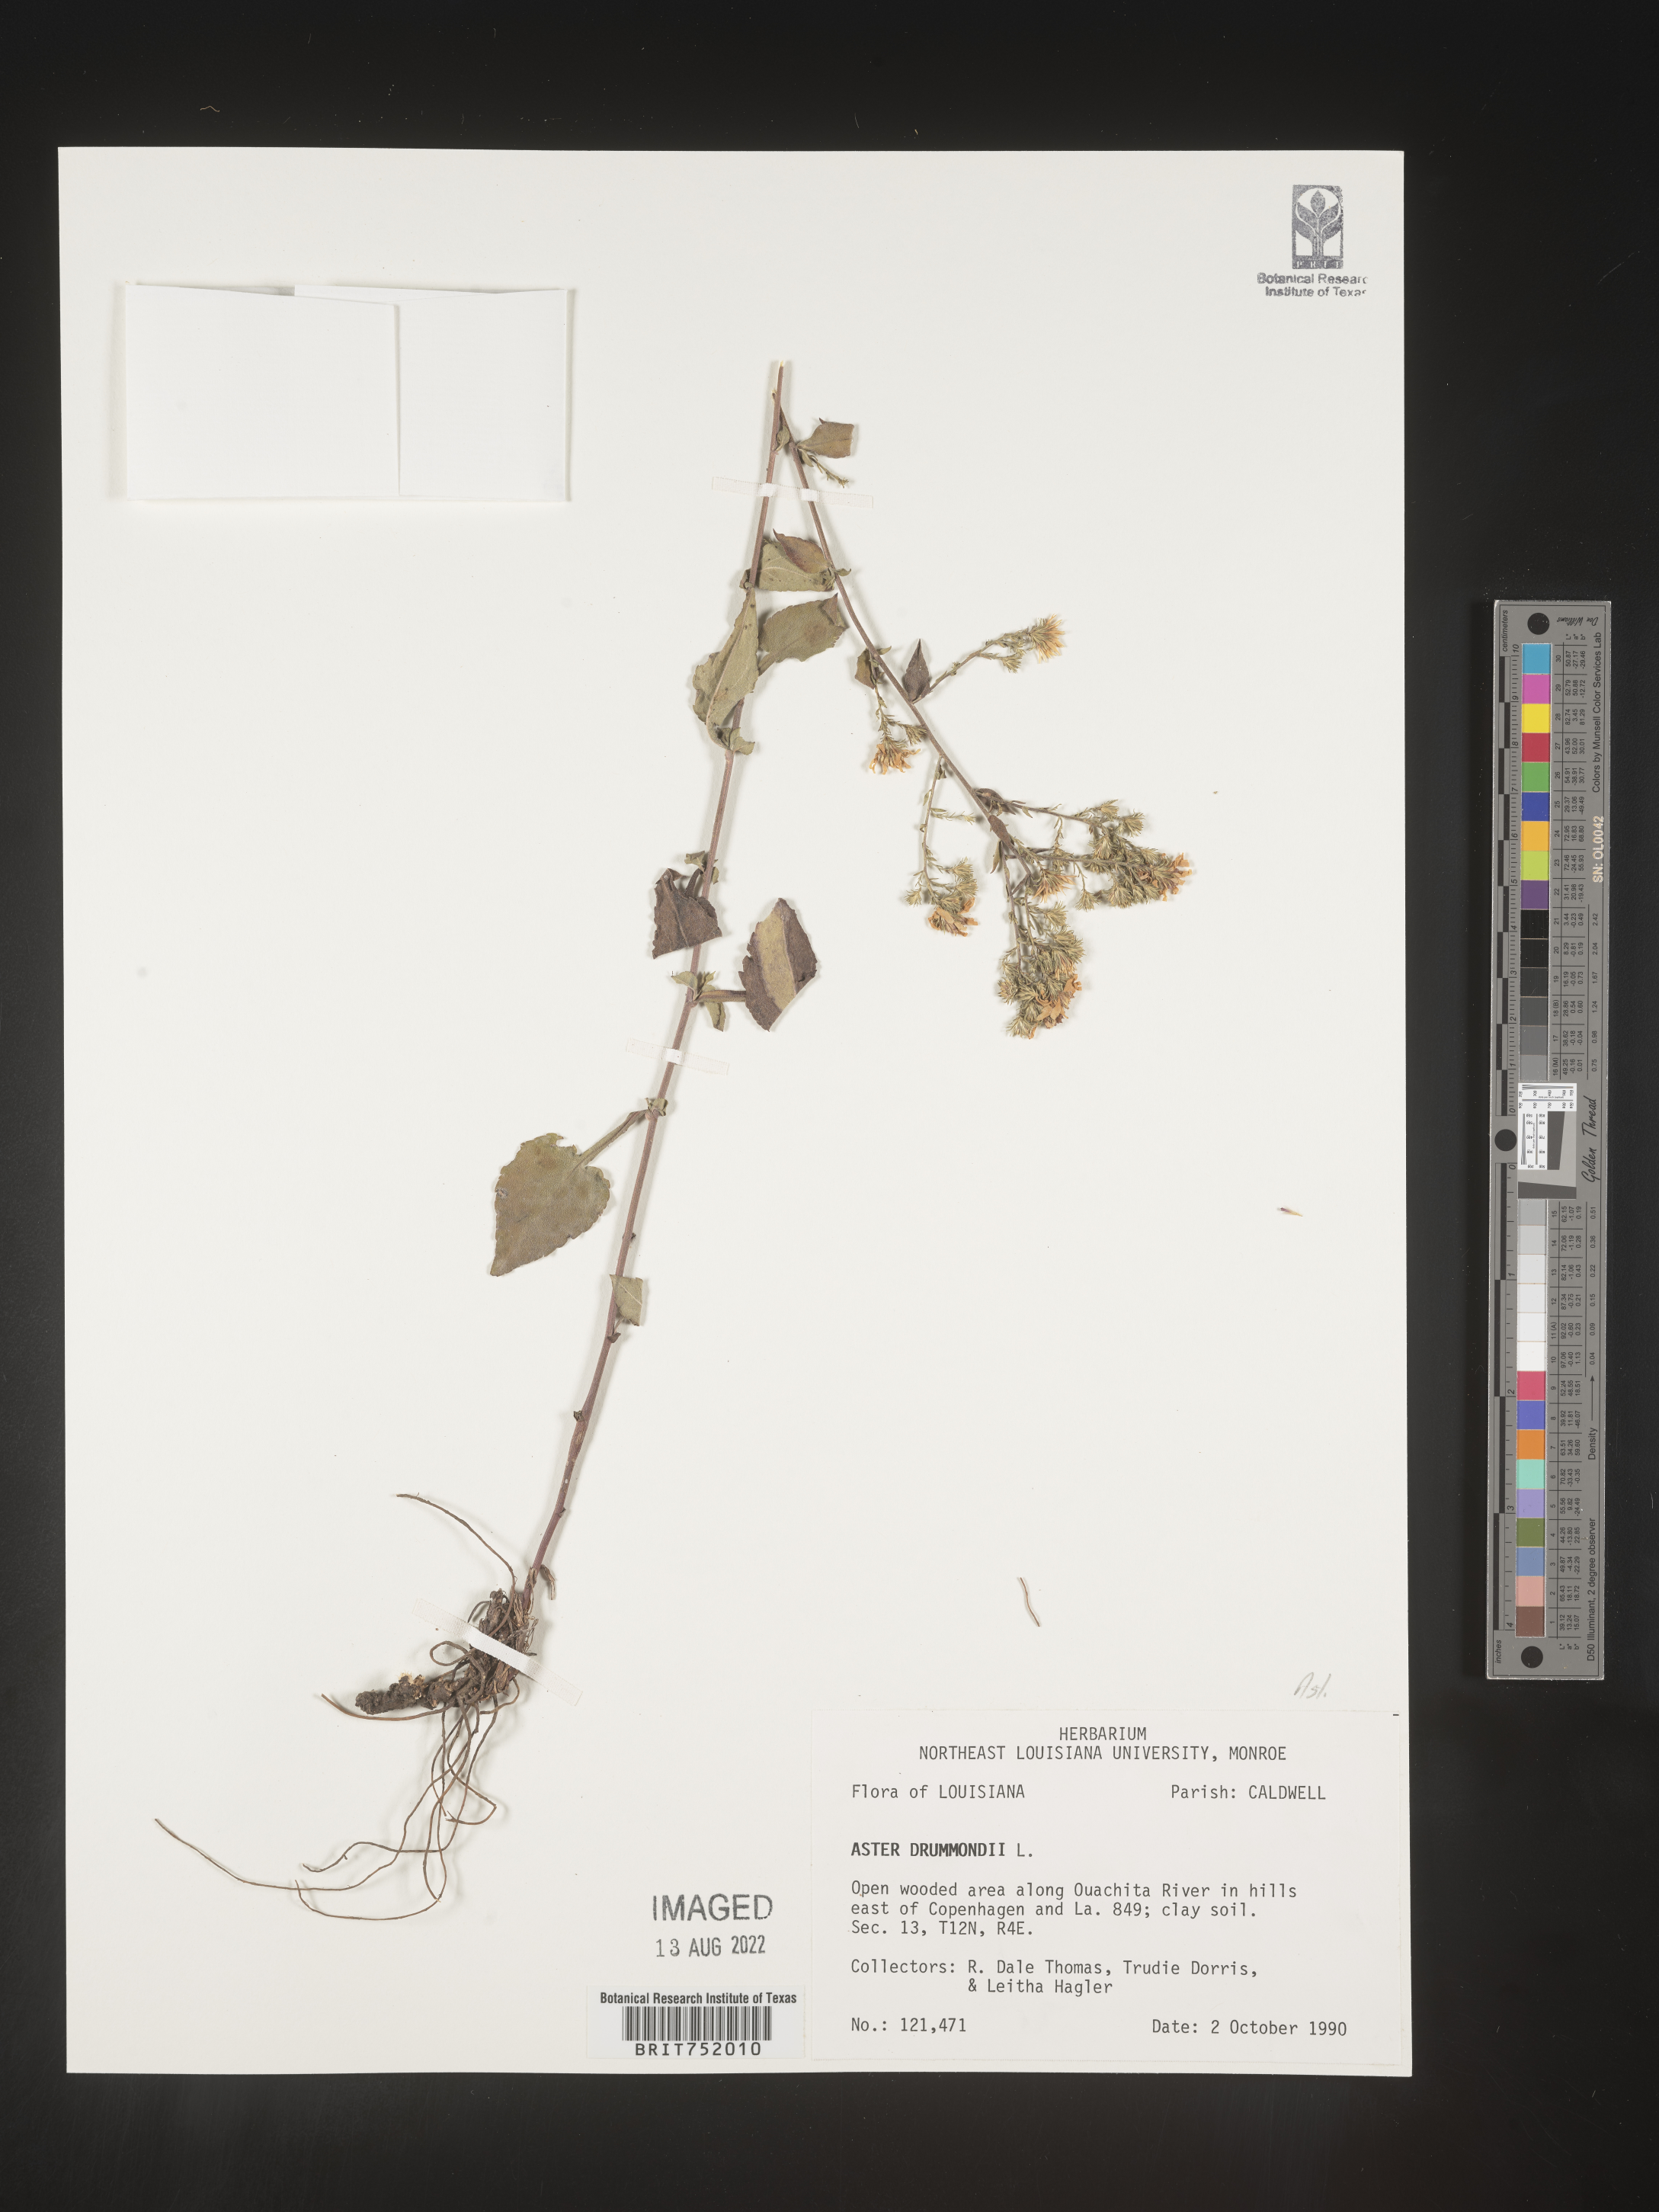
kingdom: Plantae
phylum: Tracheophyta
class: Magnoliopsida
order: Asterales
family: Asteraceae
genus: Symphyotrichum
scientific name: Symphyotrichum drummondii
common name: Drummond's aster
